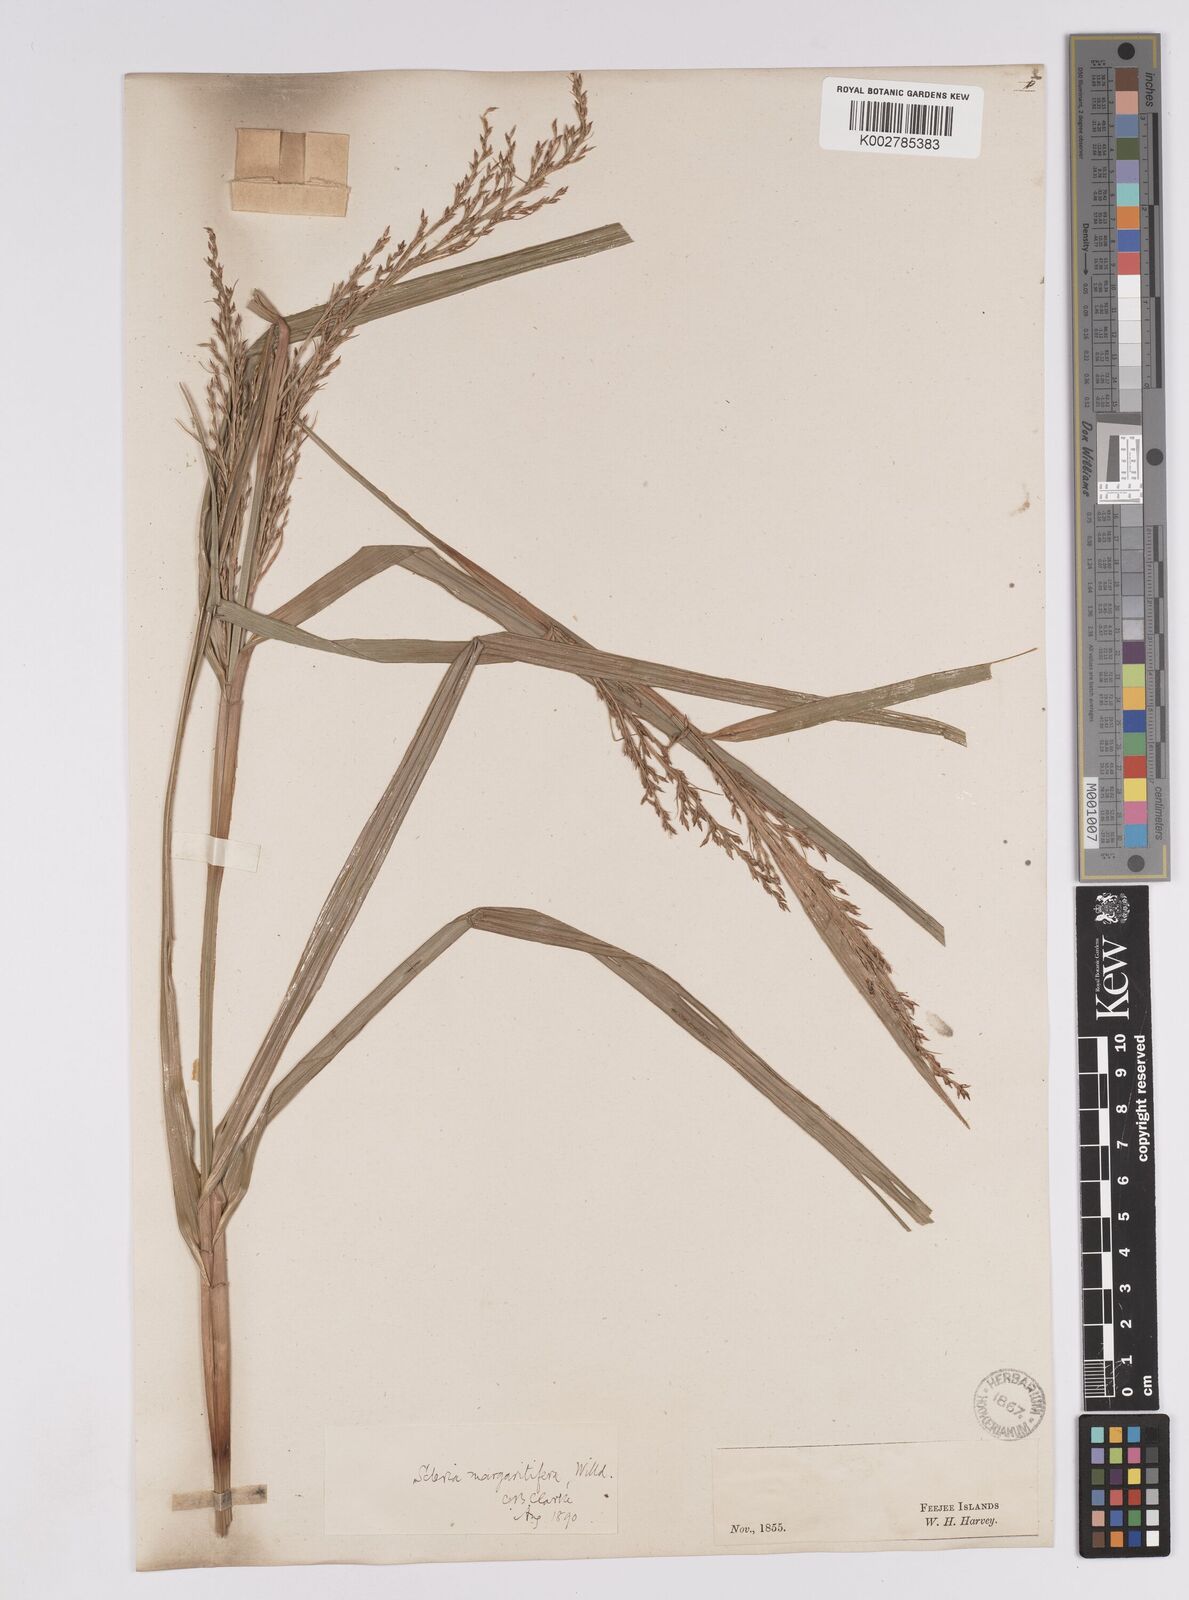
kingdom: Plantae
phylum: Tracheophyta
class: Liliopsida
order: Poales
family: Cyperaceae
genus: Scleria
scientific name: Scleria polycarpa
